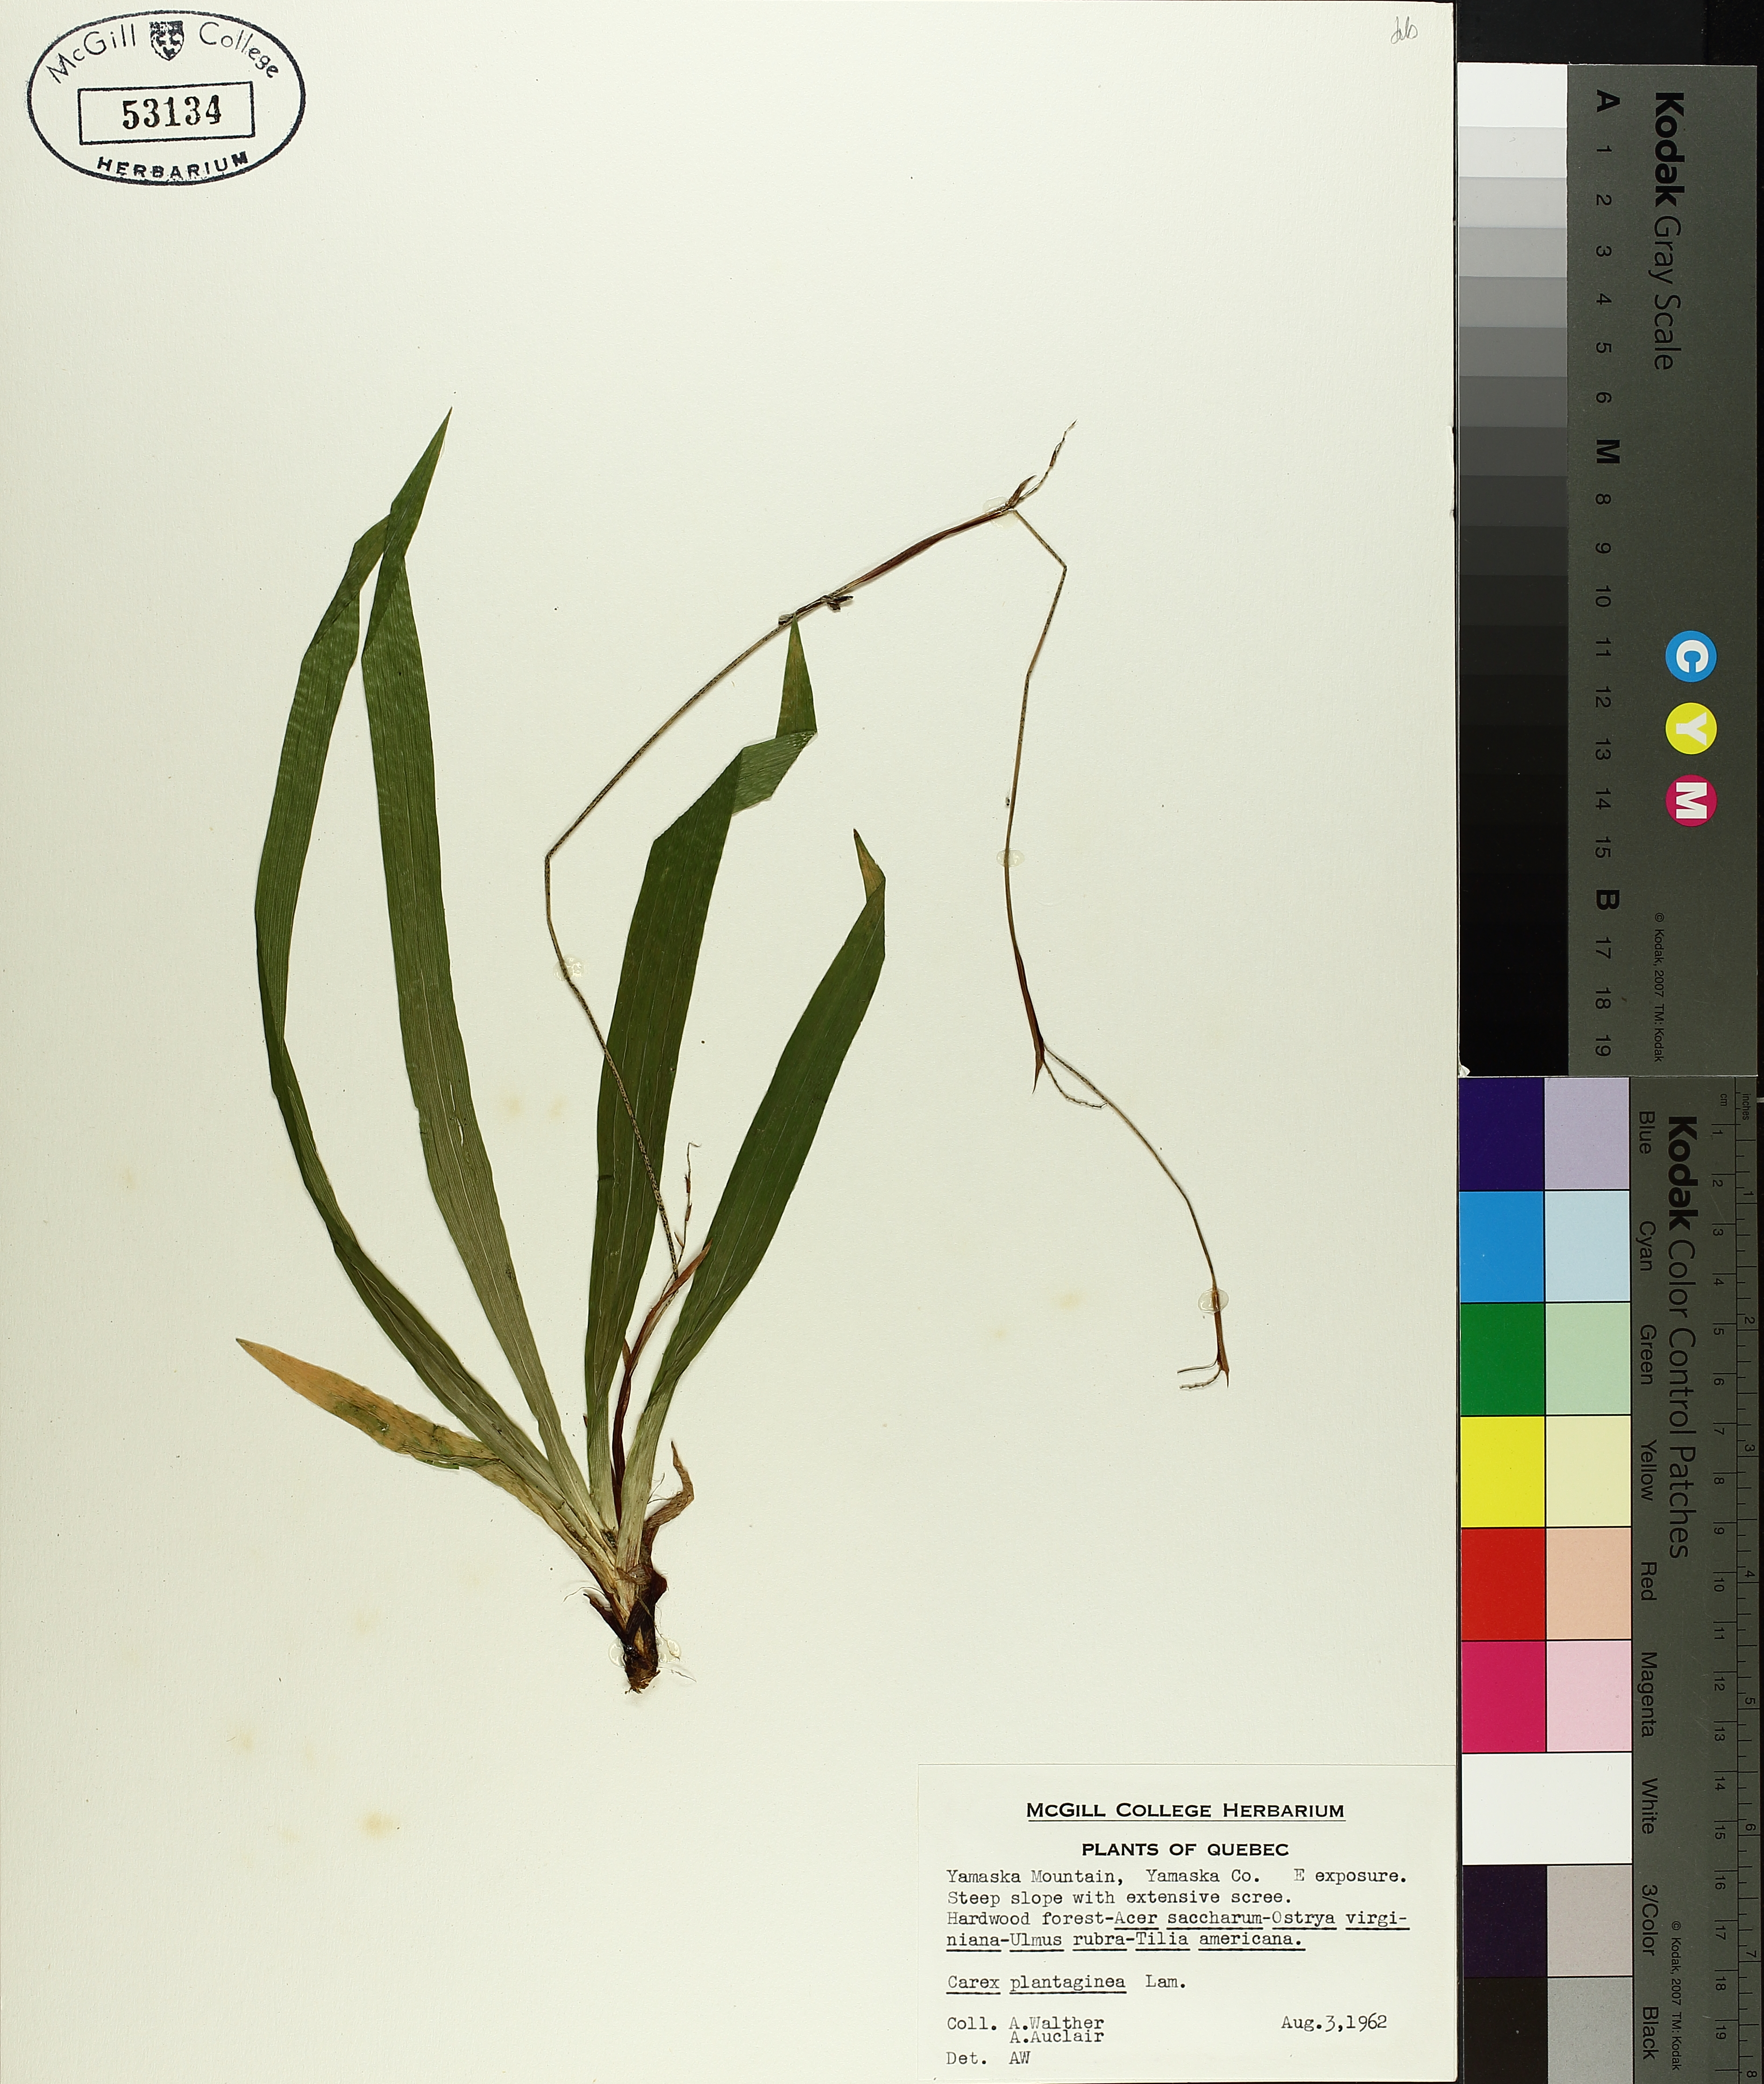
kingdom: Plantae
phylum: Tracheophyta
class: Liliopsida
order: Poales
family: Cyperaceae
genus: Carex
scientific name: Carex plantaginea
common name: Plantain-leaved sedge
